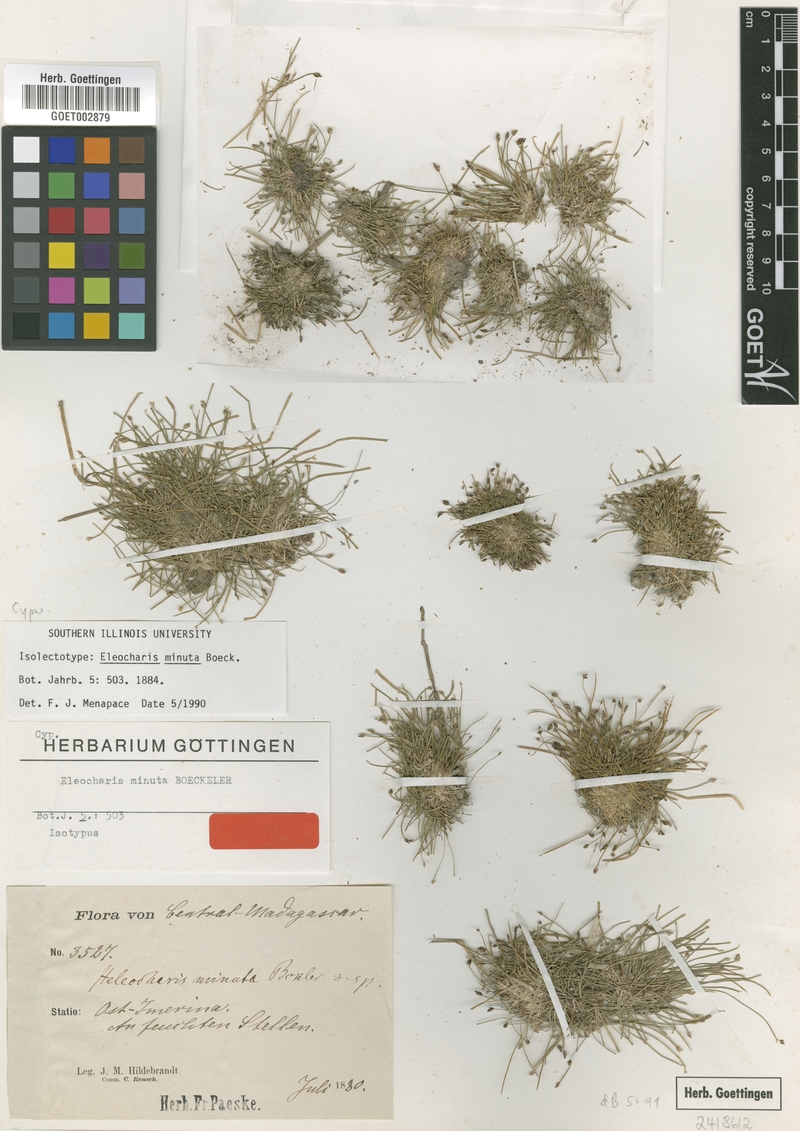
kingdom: Plantae
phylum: Tracheophyta
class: Liliopsida
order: Poales
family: Cyperaceae
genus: Eleocharis
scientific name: Eleocharis minuta
